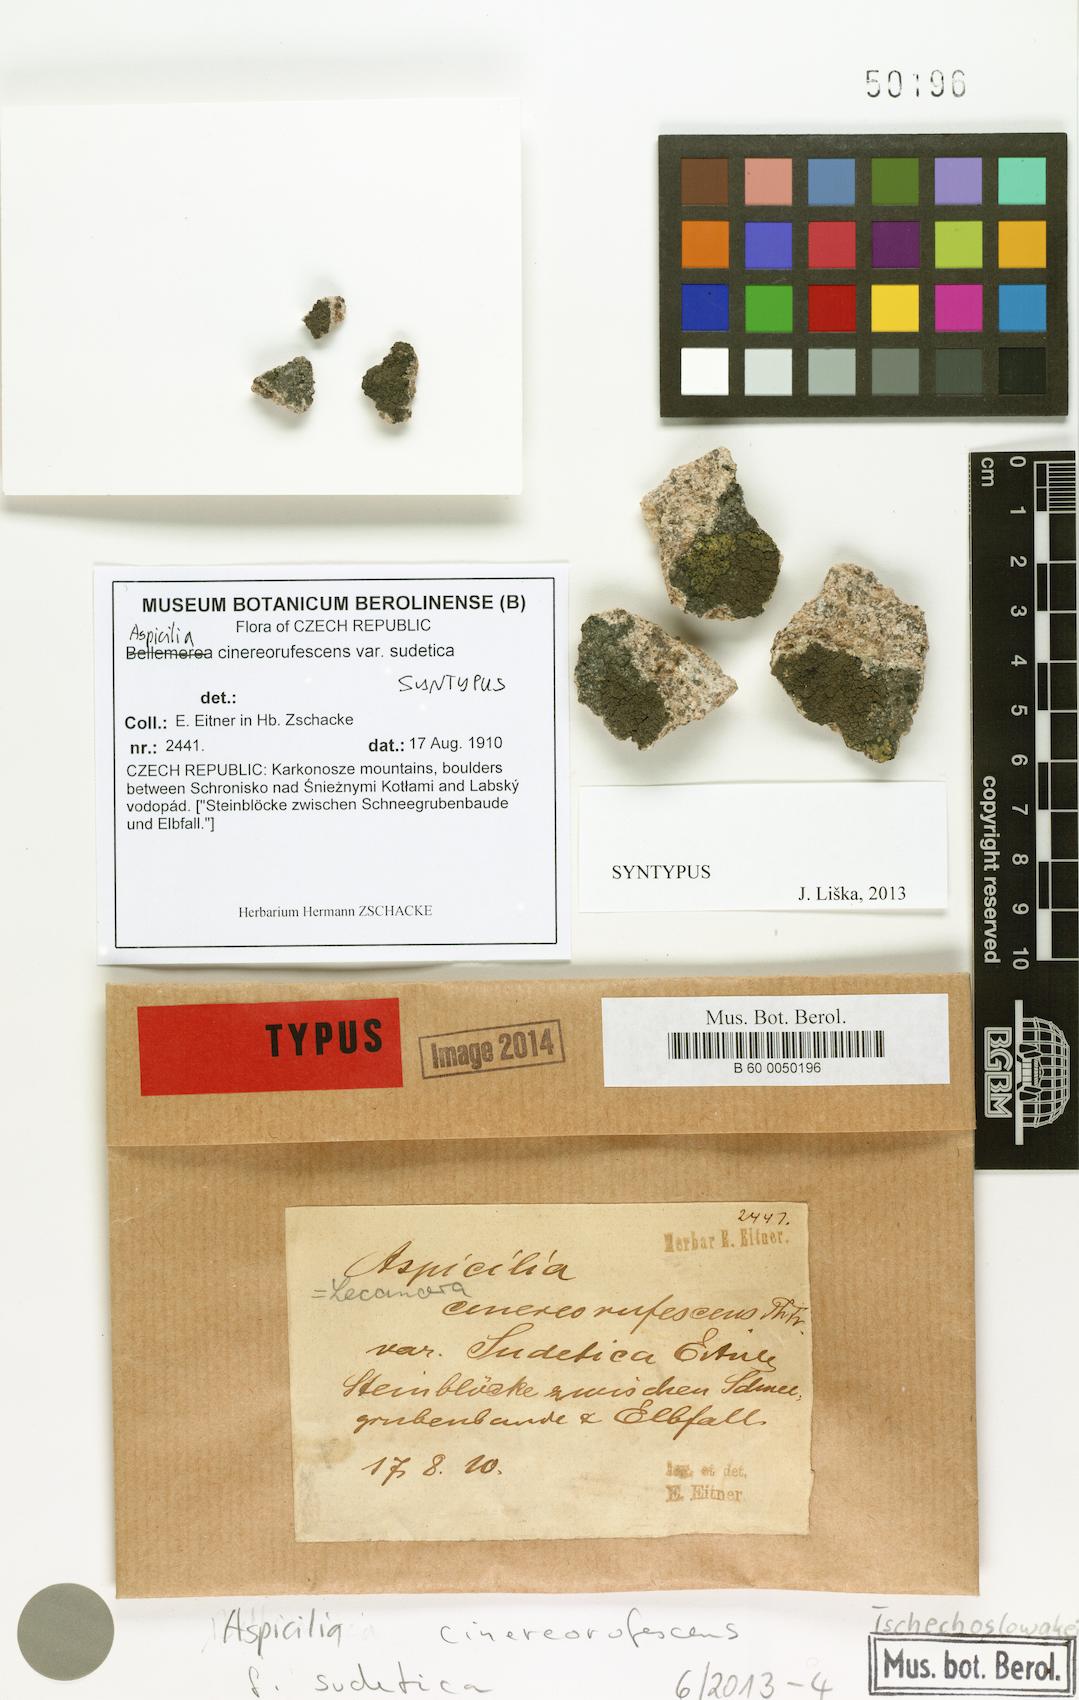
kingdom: Fungi
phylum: Ascomycota
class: Lecanoromycetes
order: Lecideales
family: Lecideaceae
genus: Bellemerea
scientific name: Bellemerea cinereorufescens
